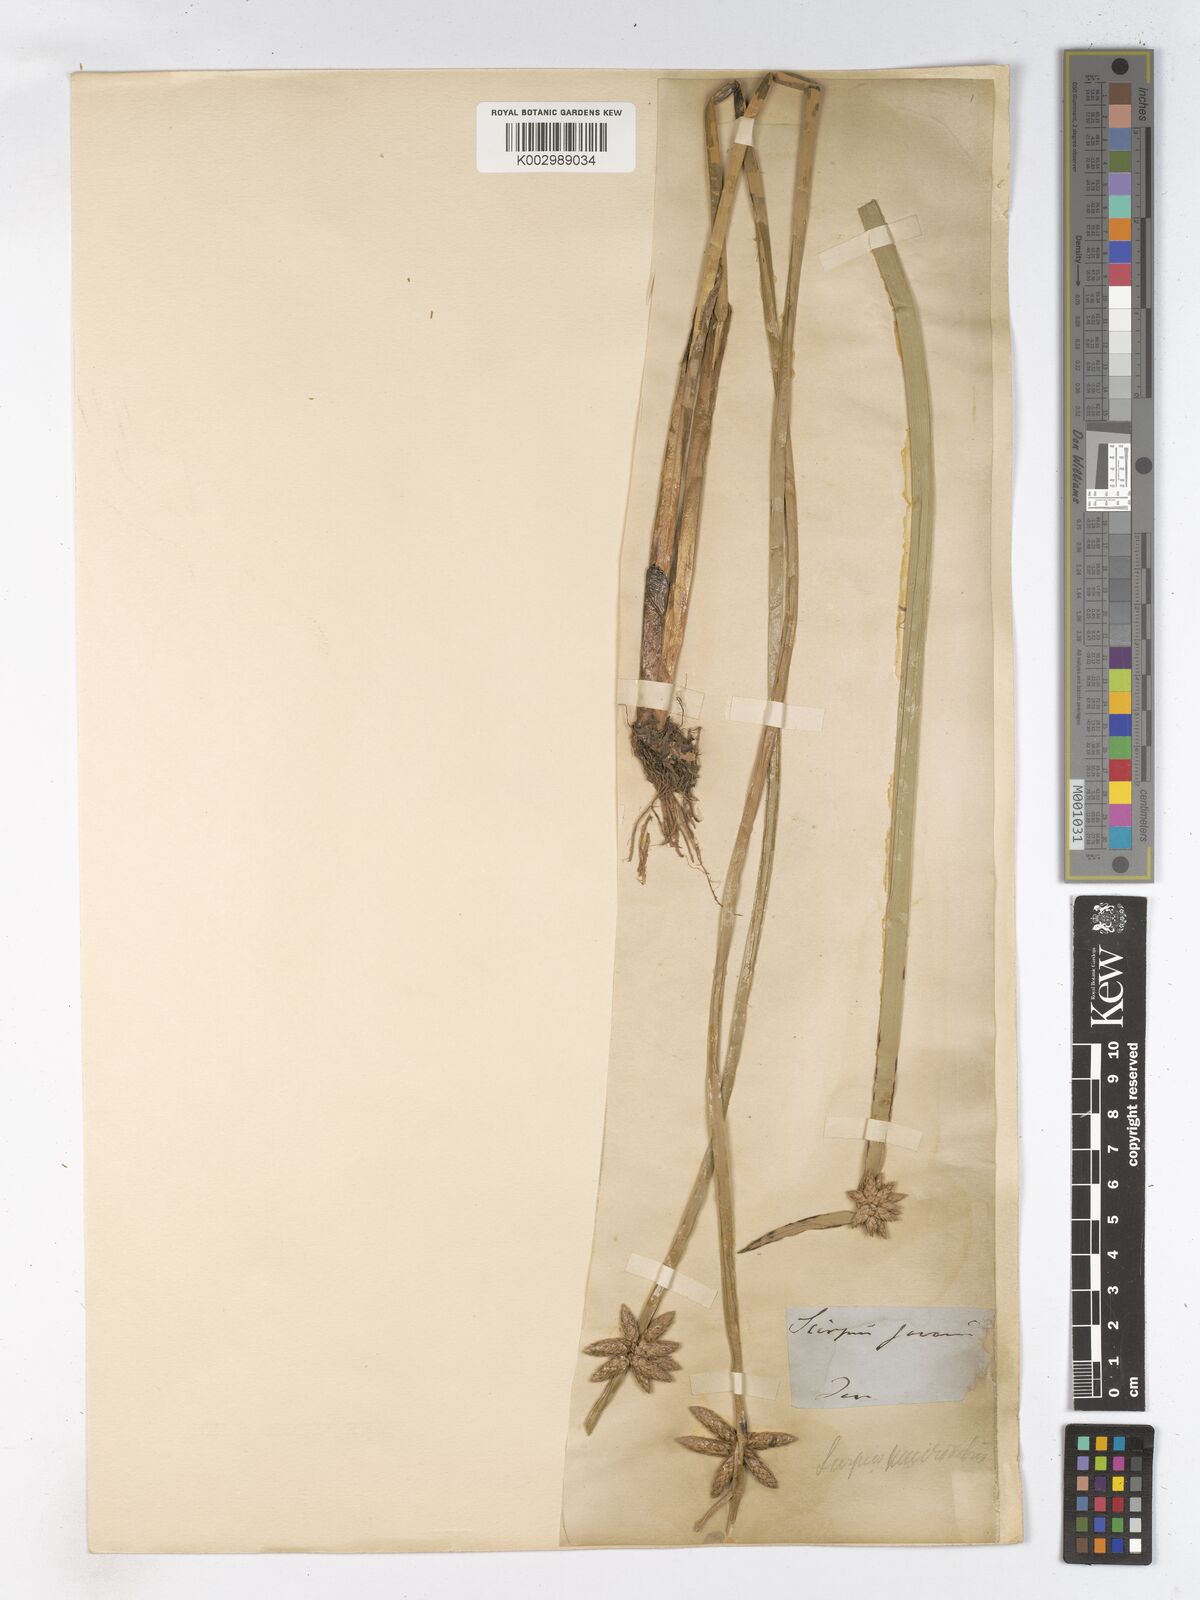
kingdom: Plantae
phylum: Tracheophyta
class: Liliopsida
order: Poales
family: Cyperaceae
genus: Schoenoplectiella
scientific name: Schoenoplectiella mucronata
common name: Bog bulrush
